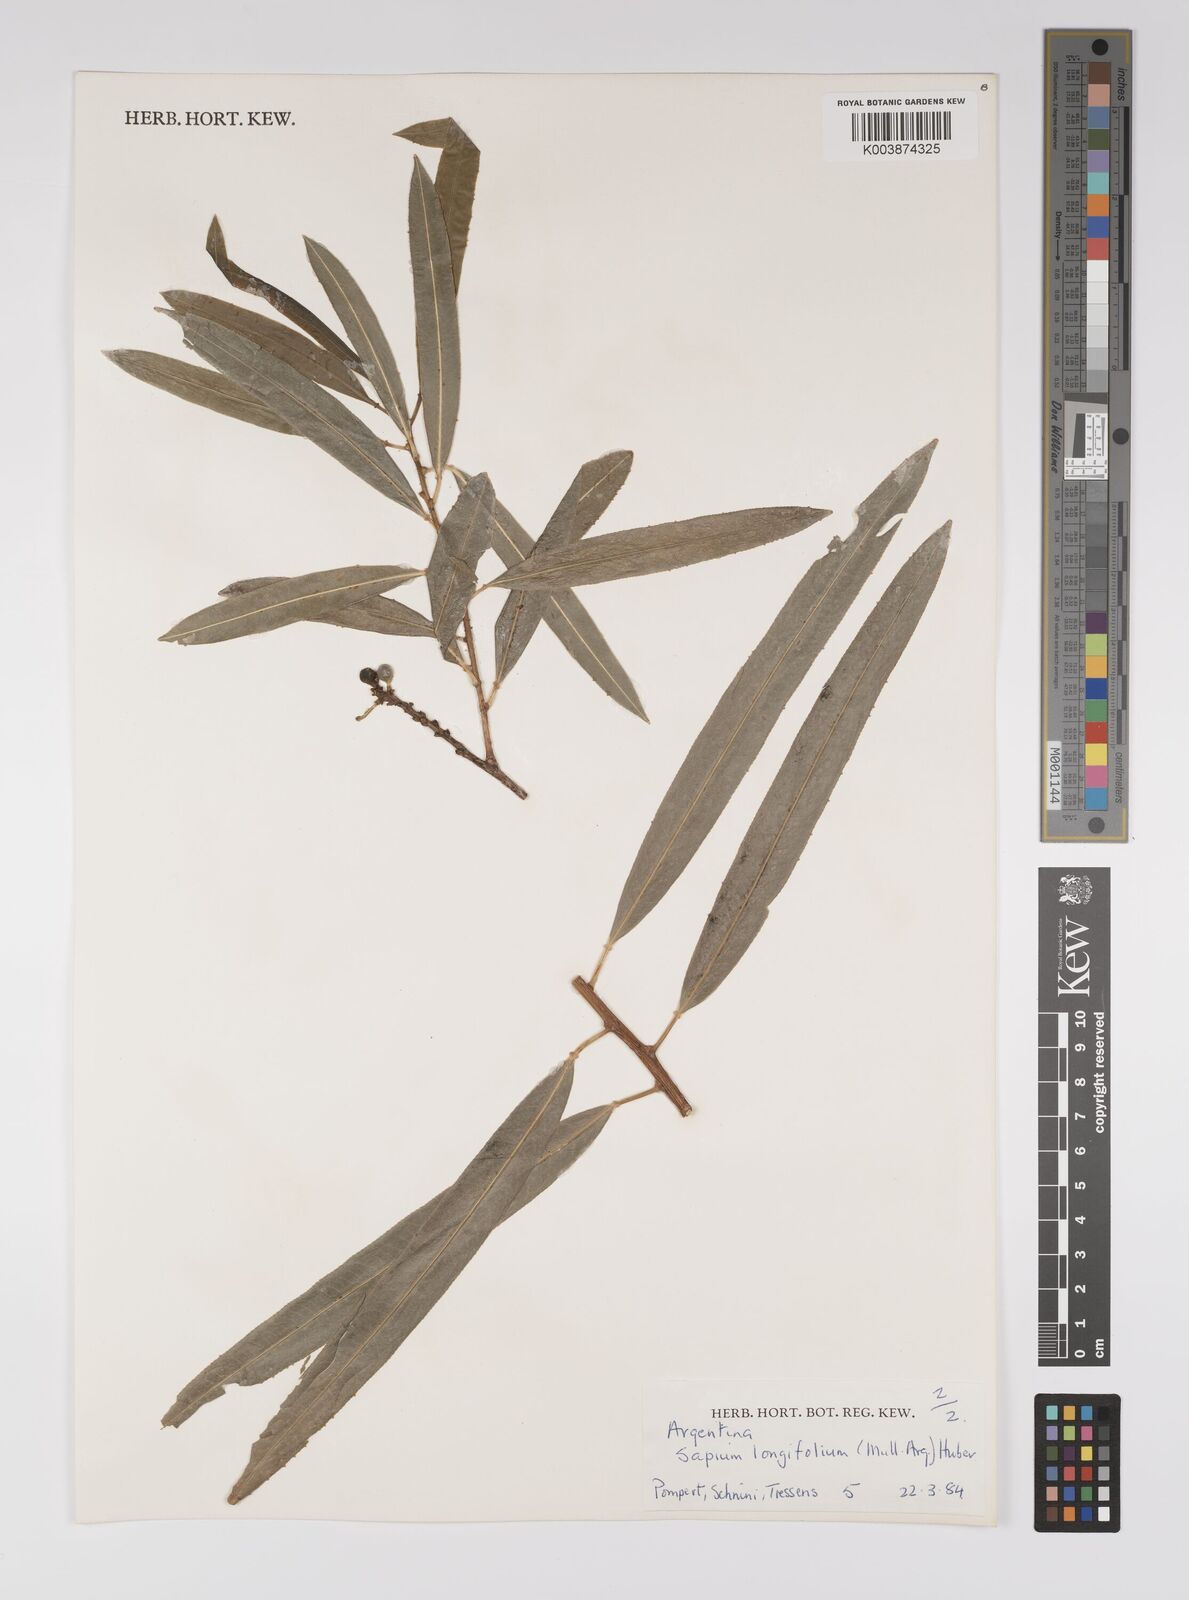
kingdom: Plantae
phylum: Tracheophyta
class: Magnoliopsida
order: Malpighiales
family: Euphorbiaceae
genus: Sapium
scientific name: Sapium haematospermum
